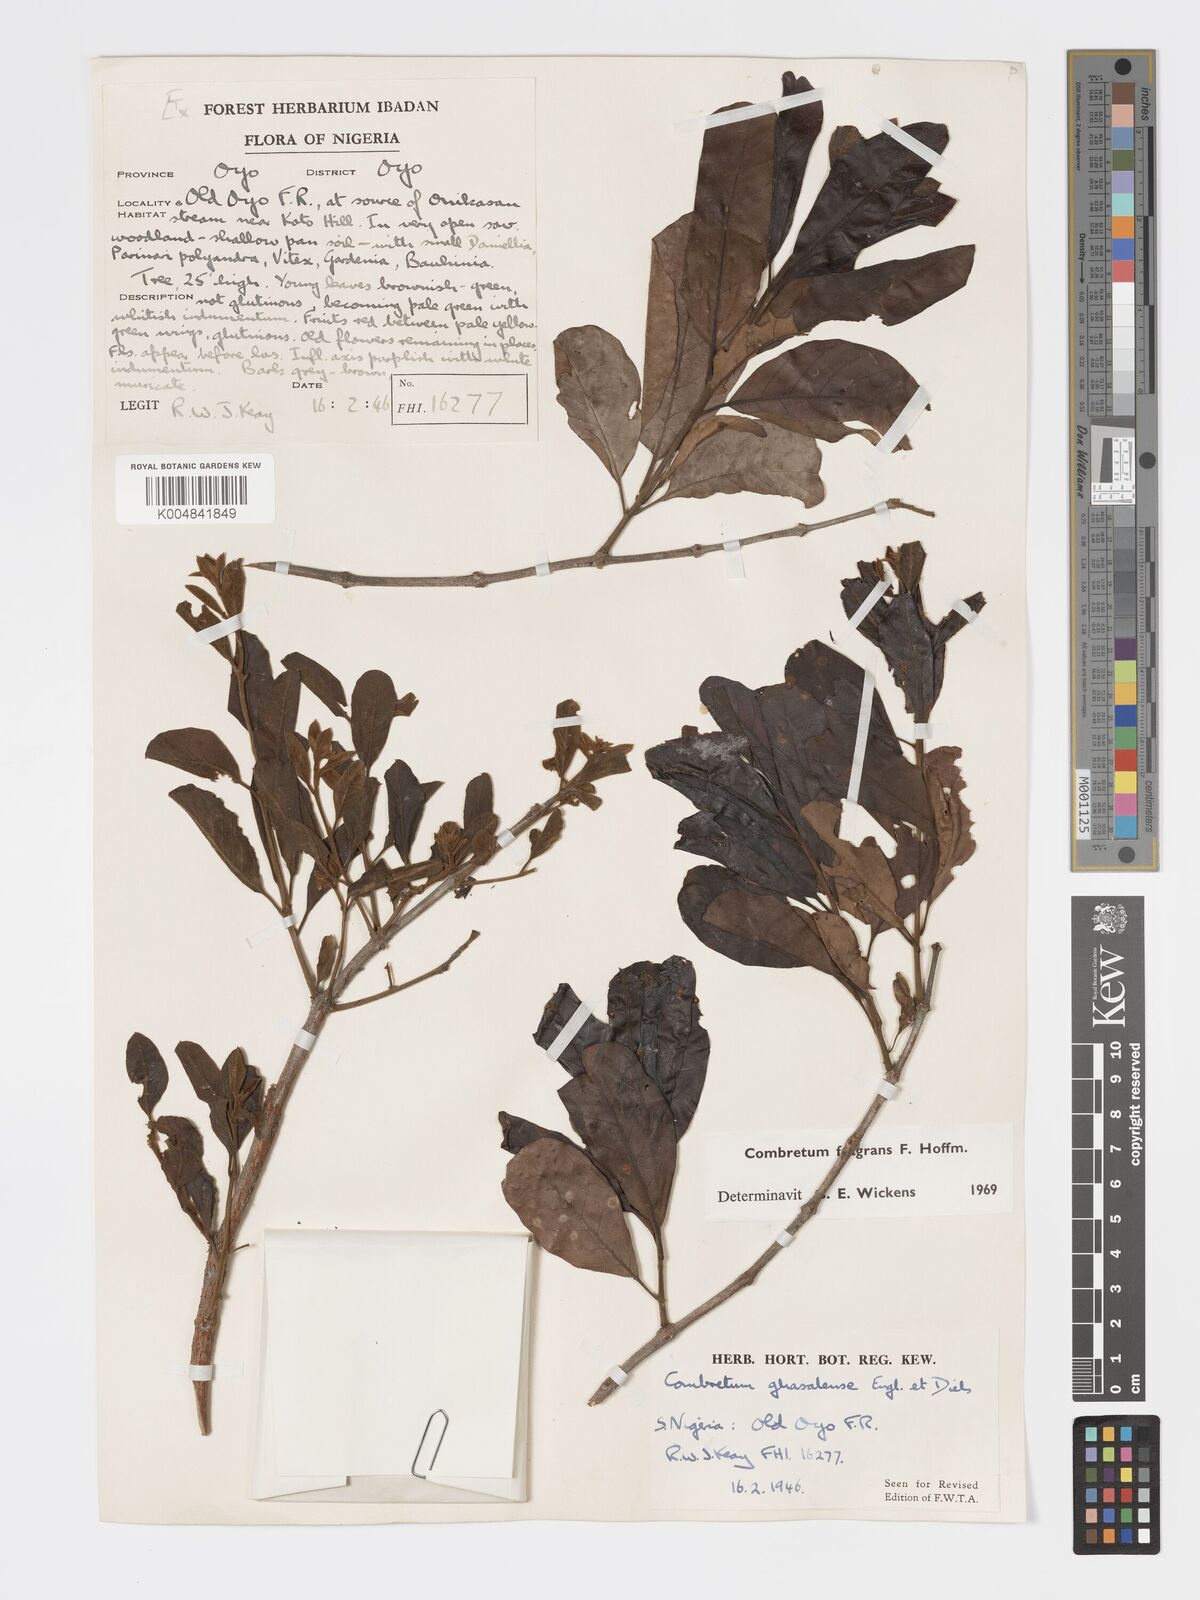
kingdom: Plantae
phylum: Tracheophyta
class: Magnoliopsida
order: Myrtales
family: Combretaceae
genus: Combretum
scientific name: Combretum adenogonium
